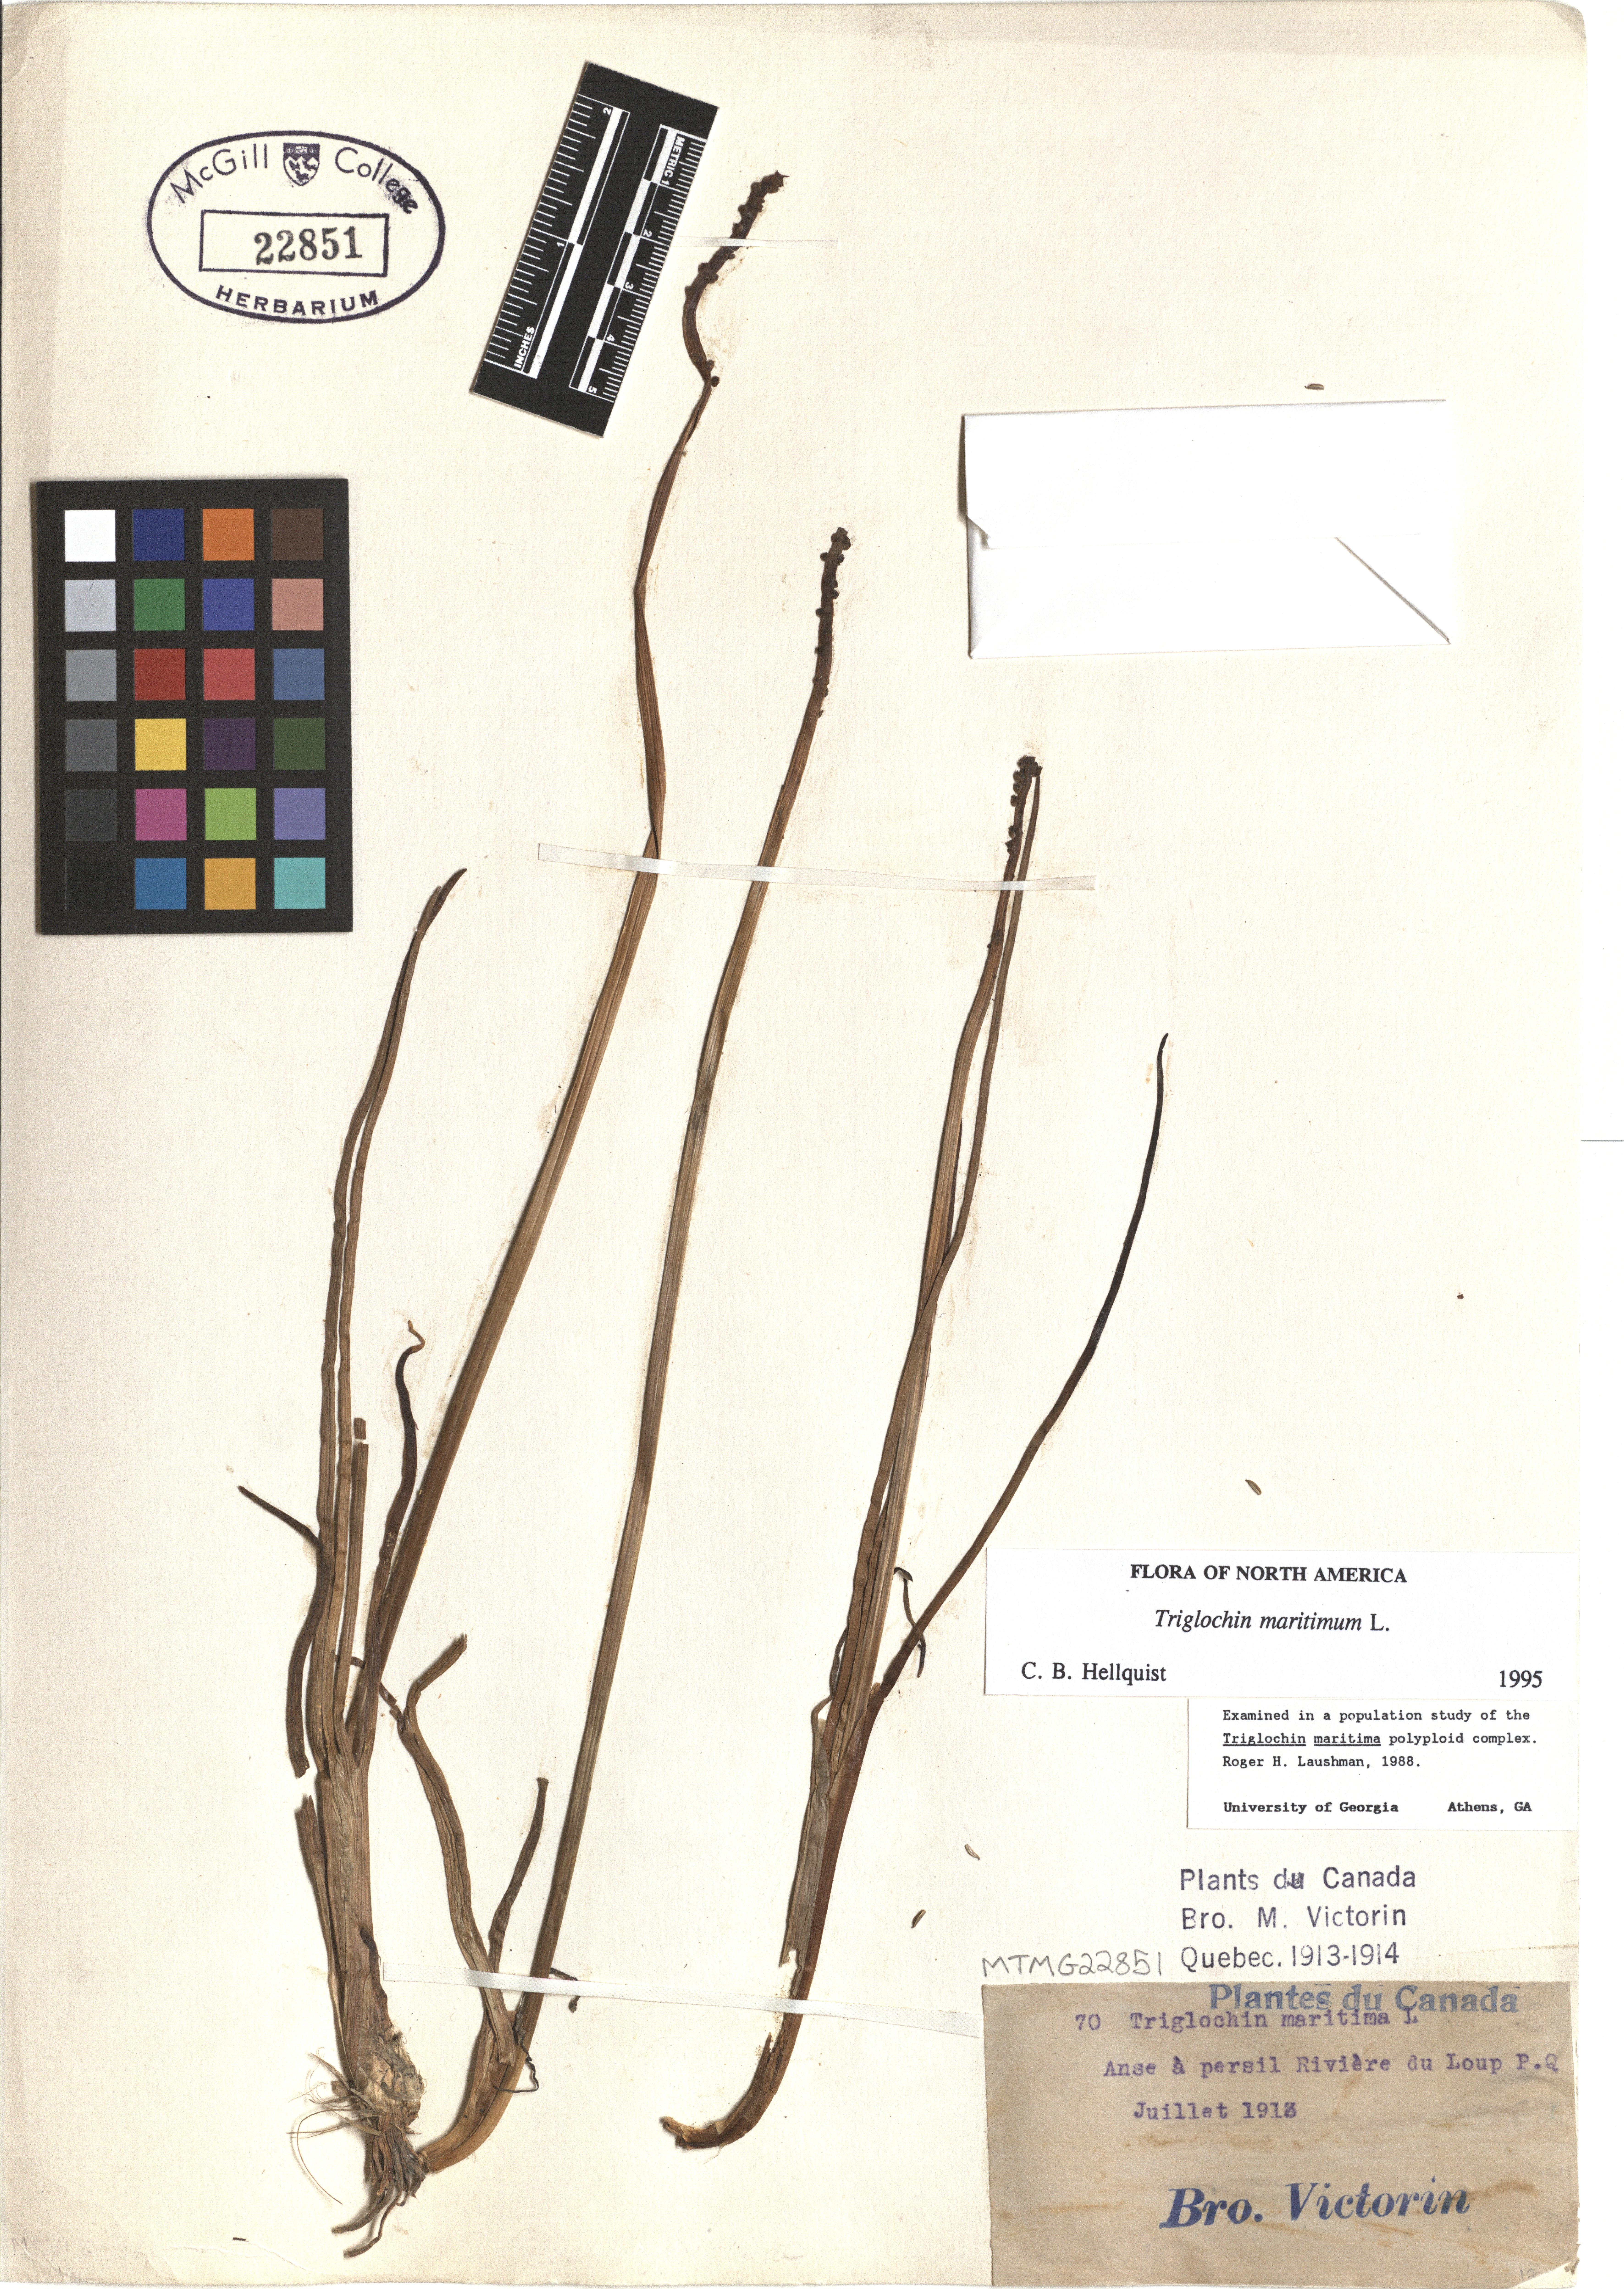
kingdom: Plantae
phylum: Tracheophyta
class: Liliopsida
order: Alismatales
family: Juncaginaceae
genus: Triglochin
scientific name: Triglochin maritima
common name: Sea arrowgrass
